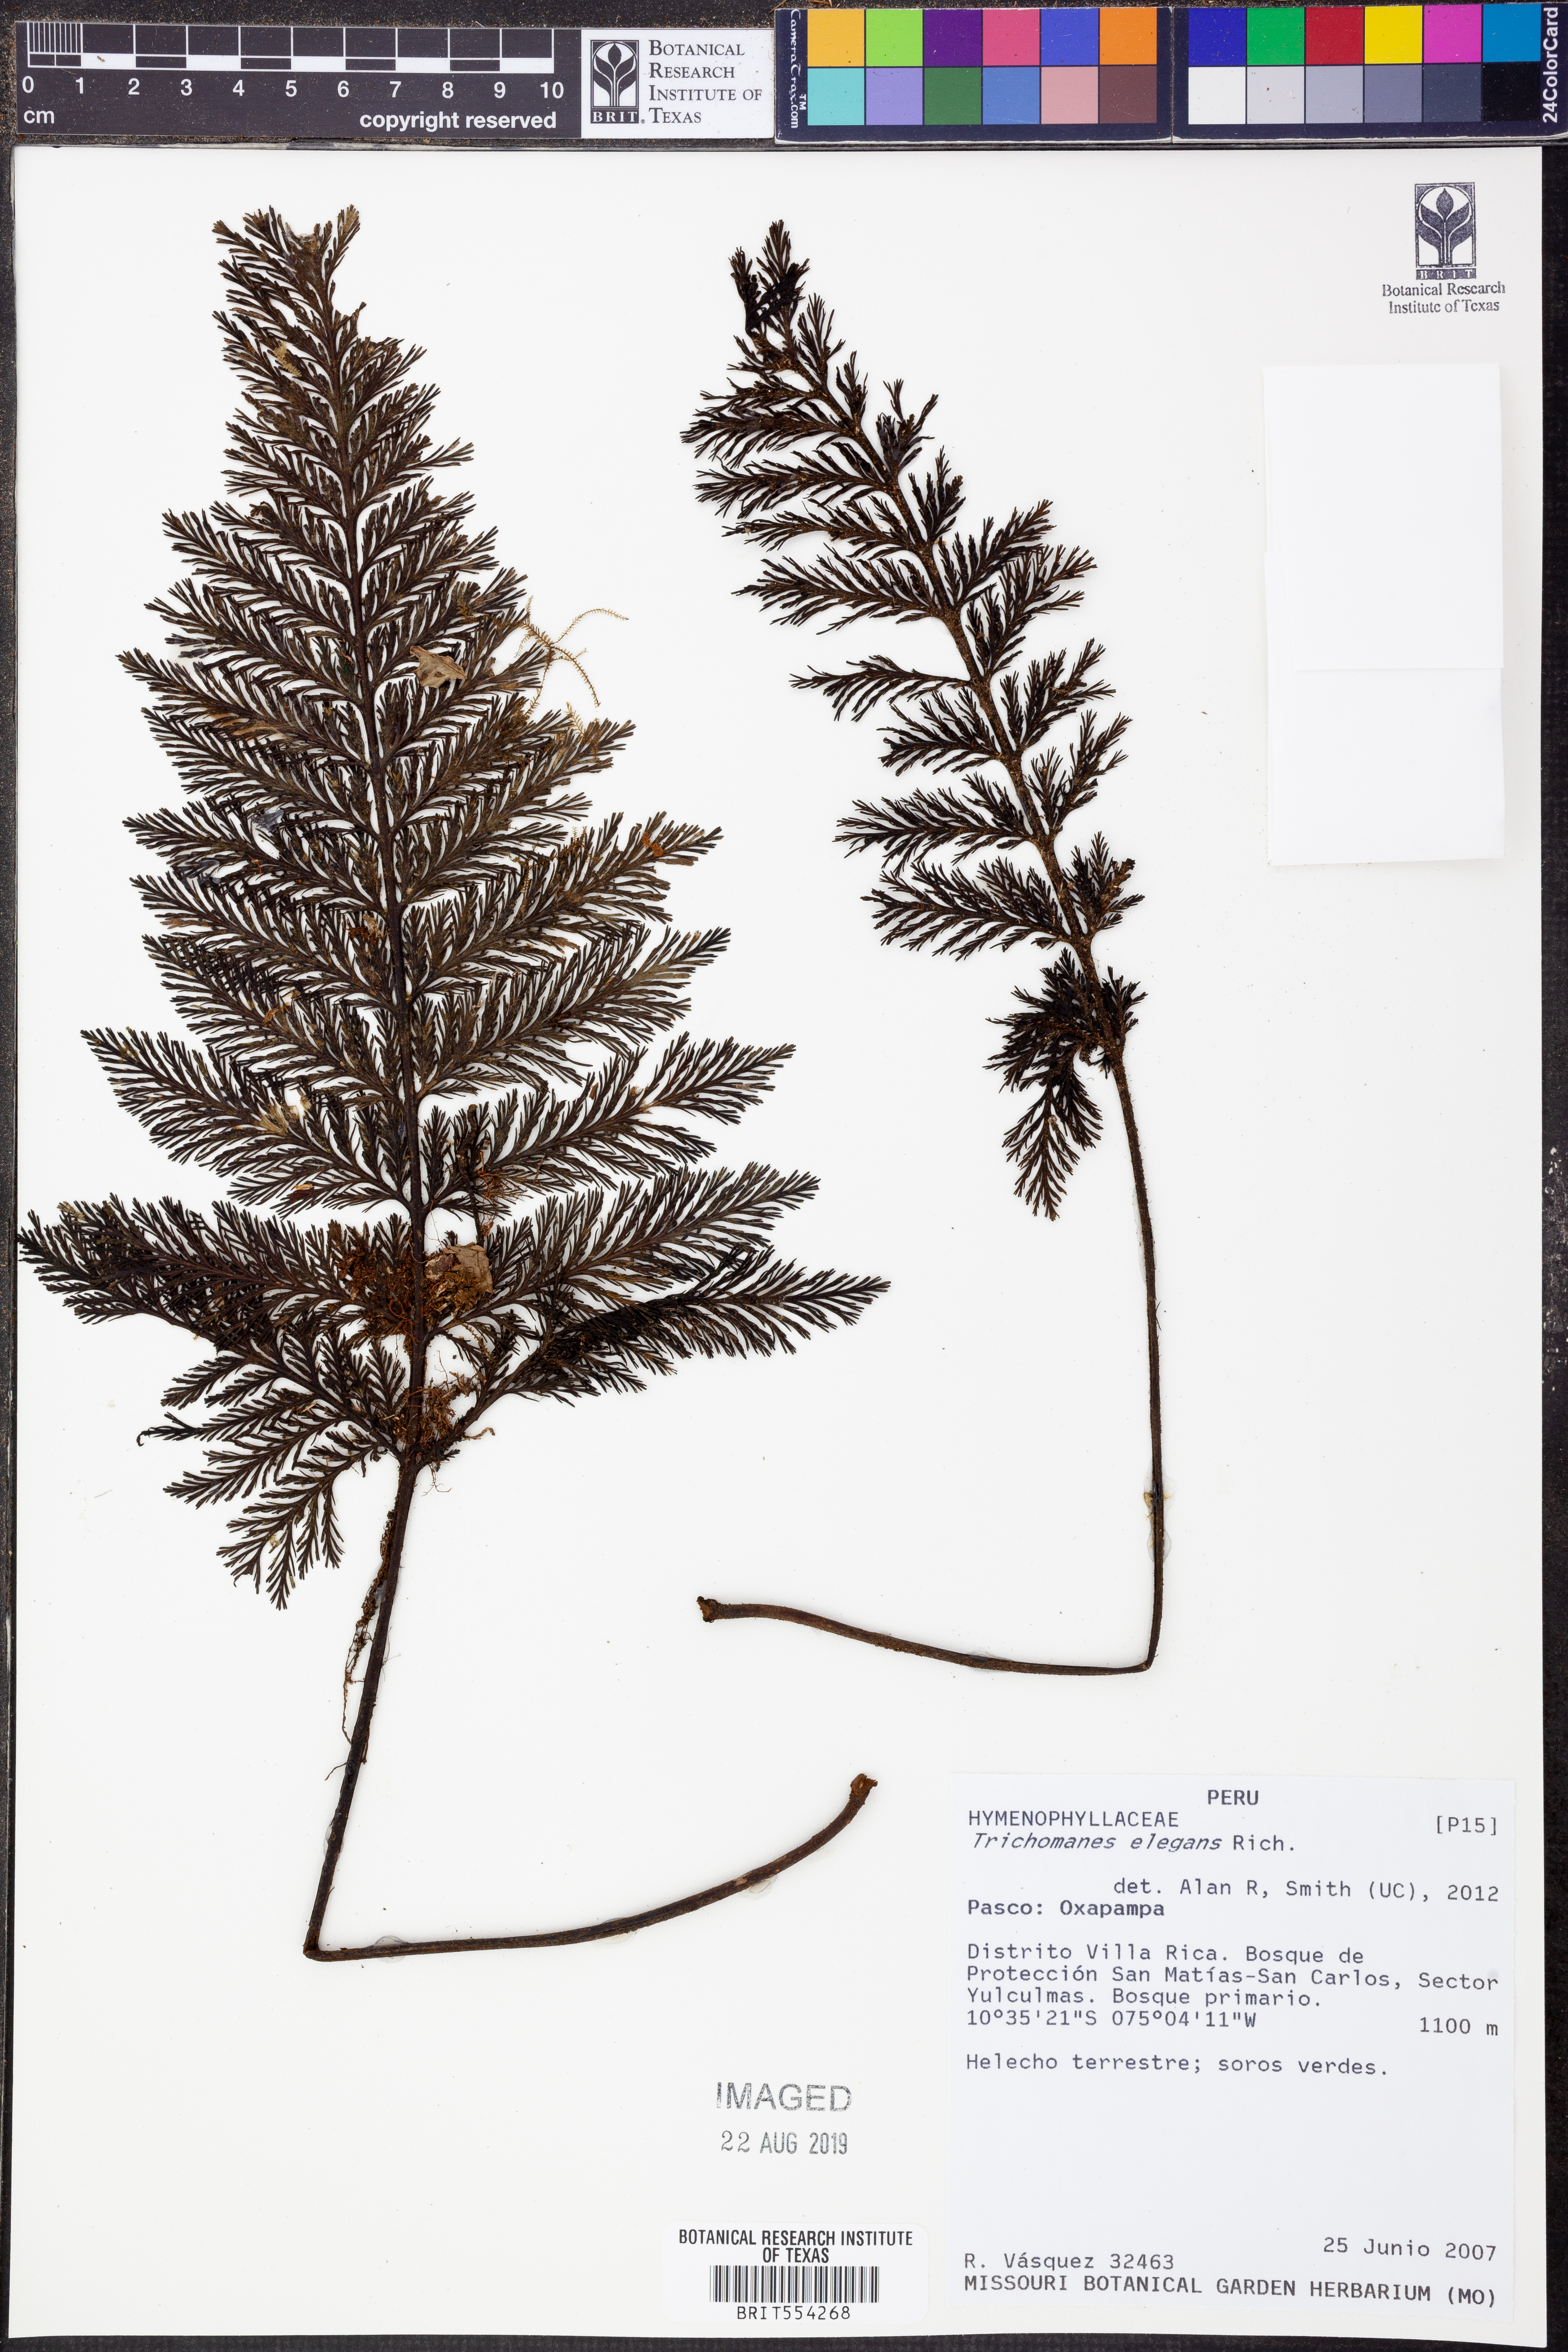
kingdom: Plantae
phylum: Tracheophyta
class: Polypodiopsida
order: Hymenophyllales
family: Hymenophyllaceae
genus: Trichomanes
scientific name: Trichomanes elegans
